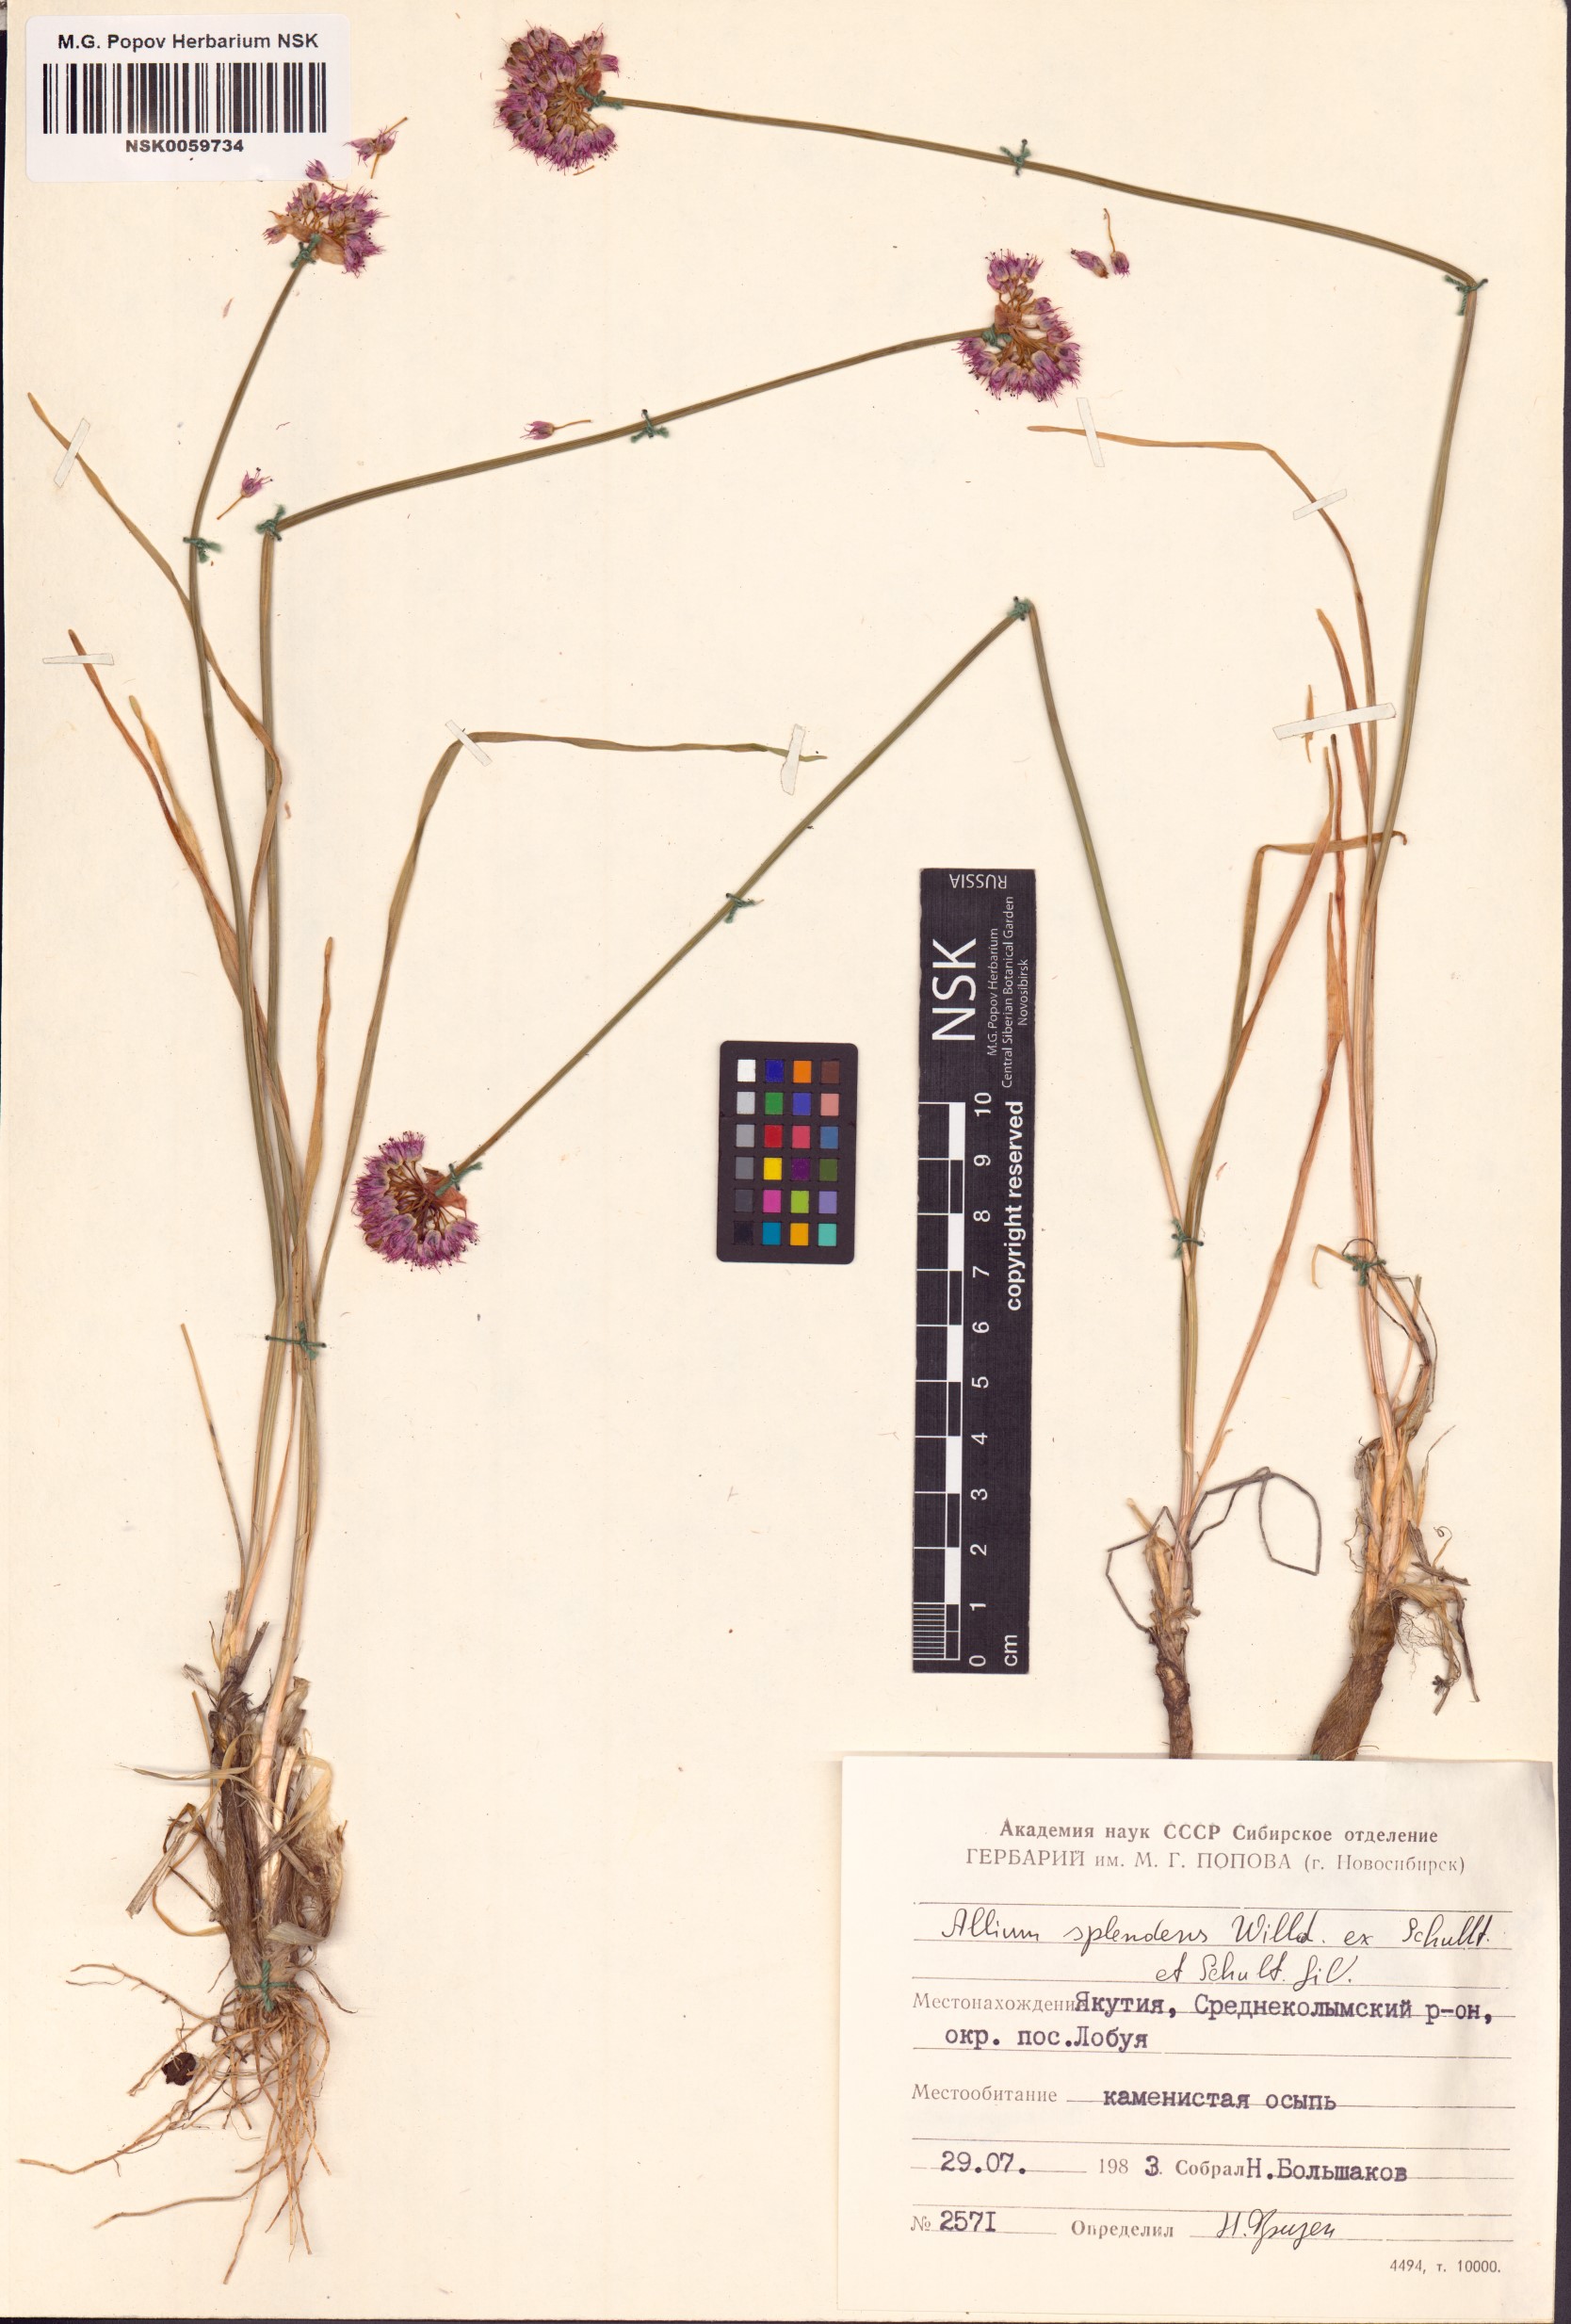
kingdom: Plantae
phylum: Tracheophyta
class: Liliopsida
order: Asparagales
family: Amaryllidaceae
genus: Allium
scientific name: Allium splendens
